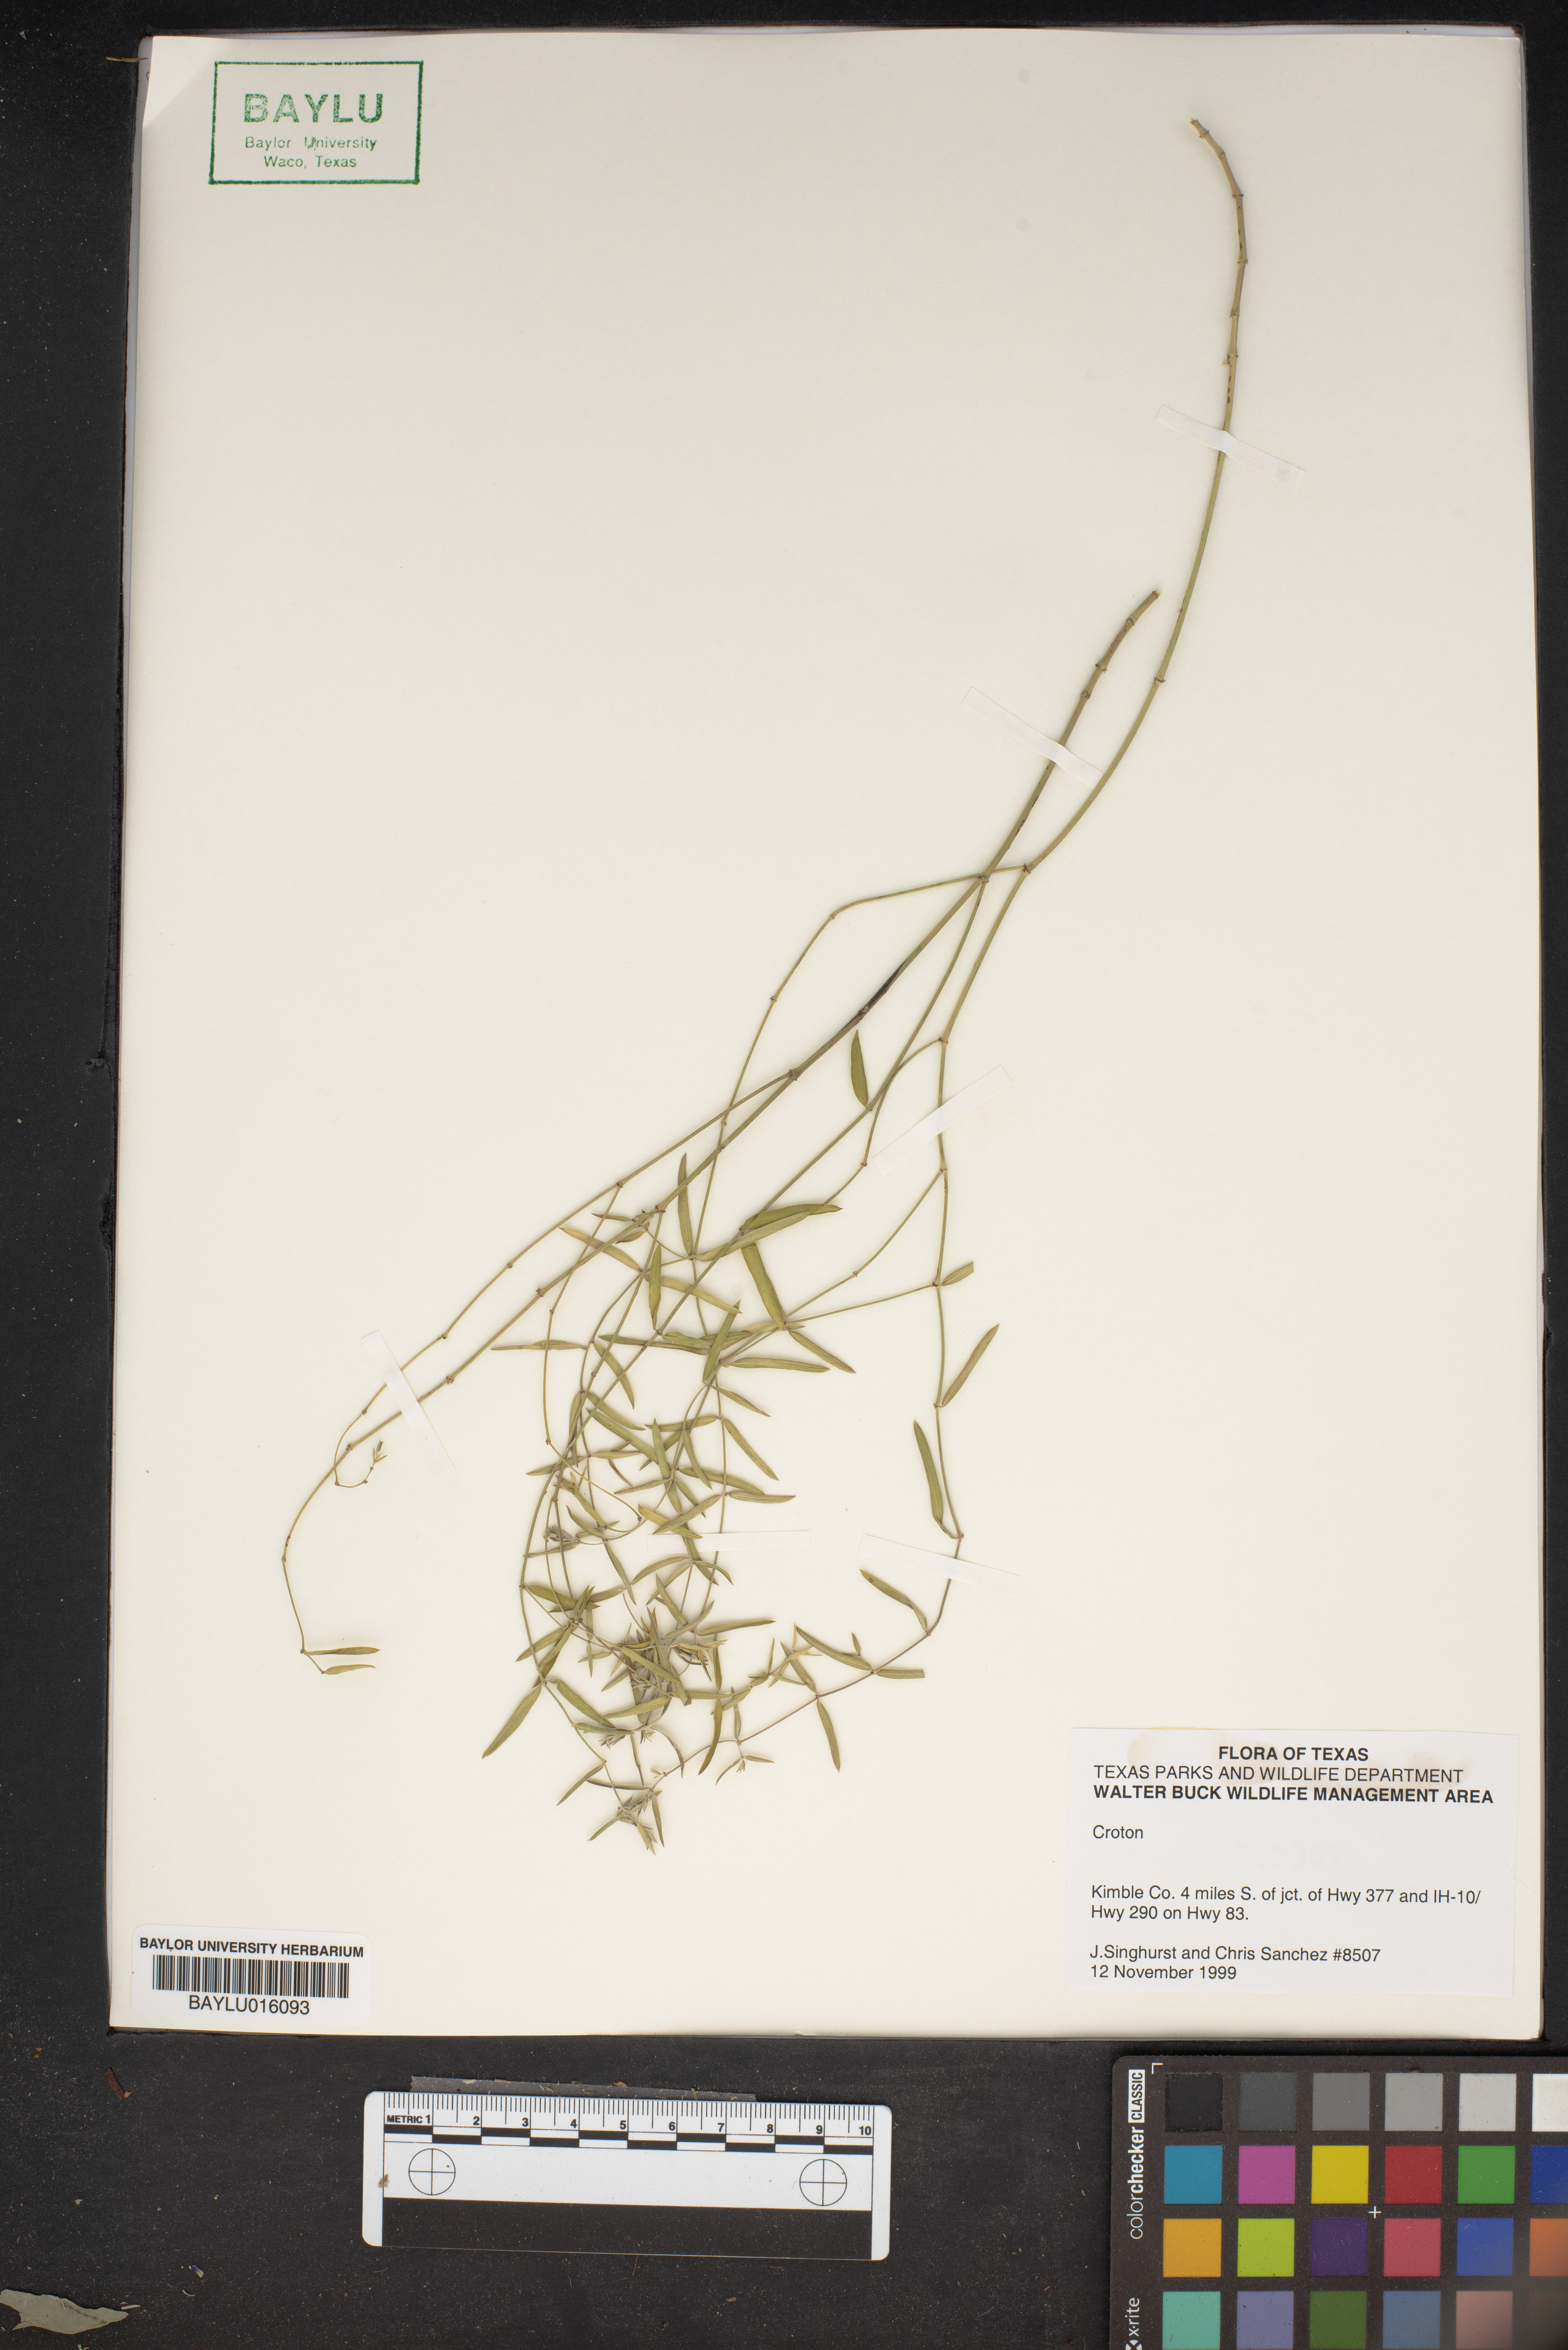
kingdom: Plantae
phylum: Tracheophyta
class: Magnoliopsida
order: Malpighiales
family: Euphorbiaceae
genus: Croton
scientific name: Croton
